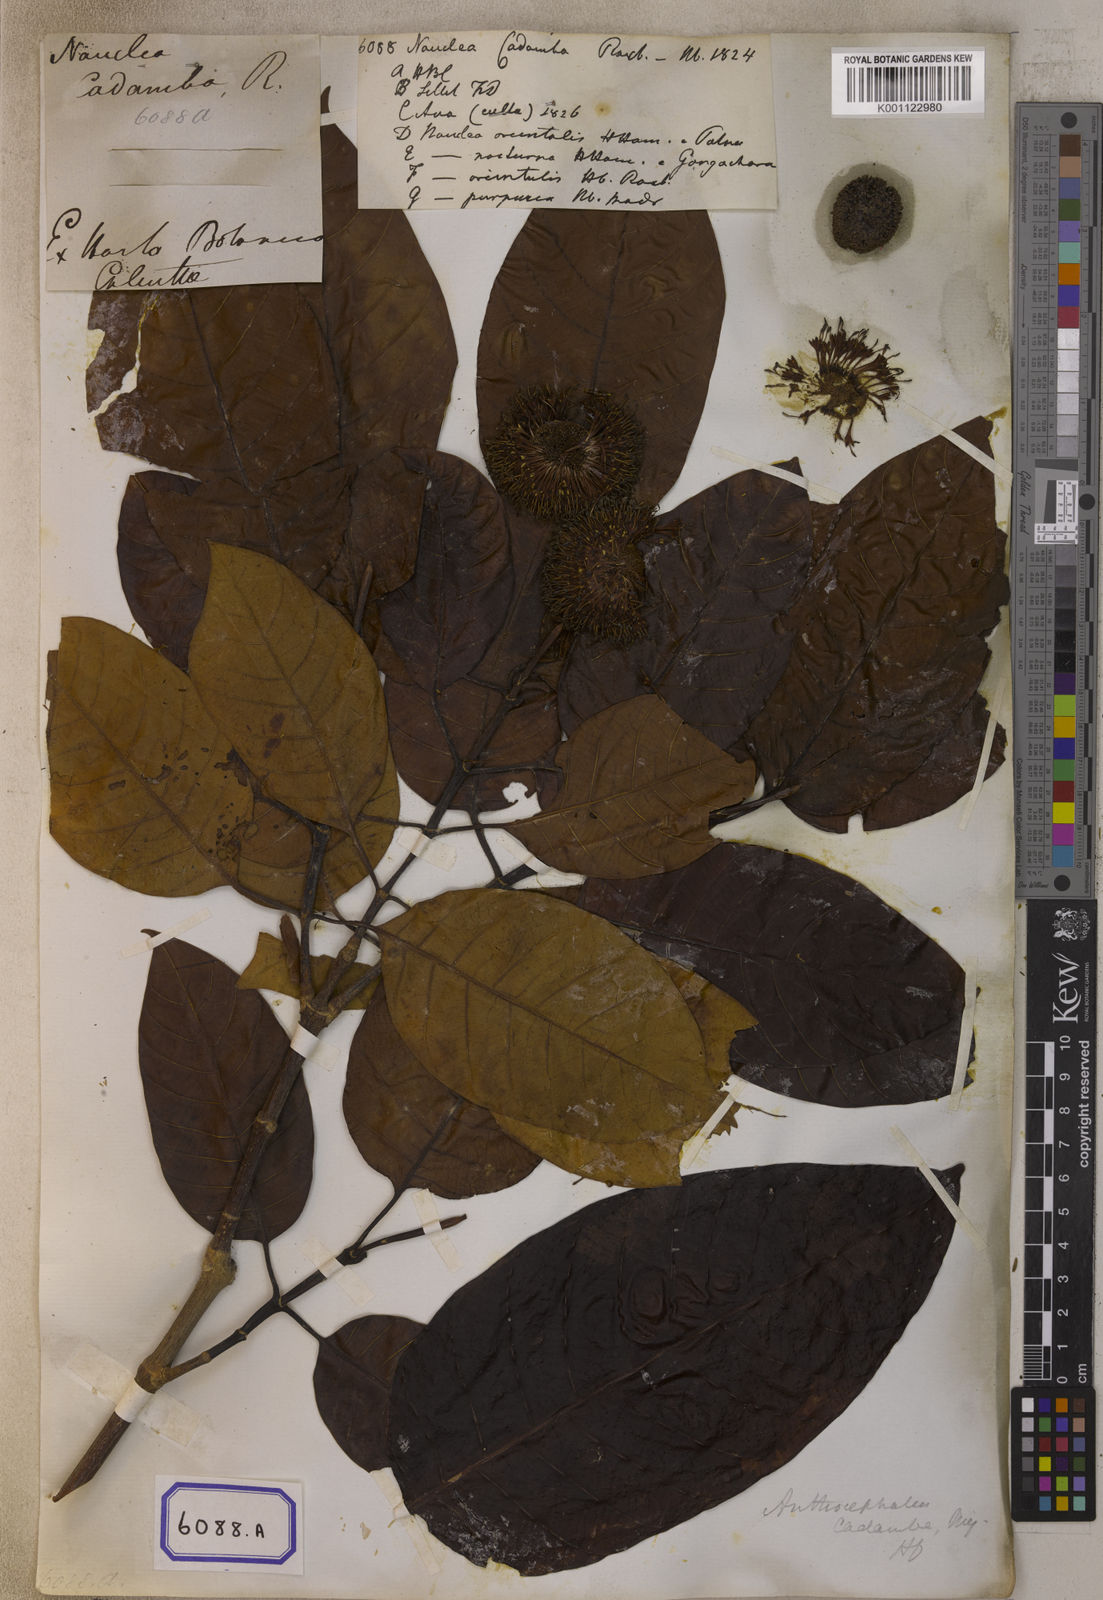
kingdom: Plantae
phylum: Tracheophyta
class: Magnoliopsida
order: Gentianales
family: Rubiaceae
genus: Neolamarckia
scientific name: Neolamarckia cadamba
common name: Leichhardt-pine
